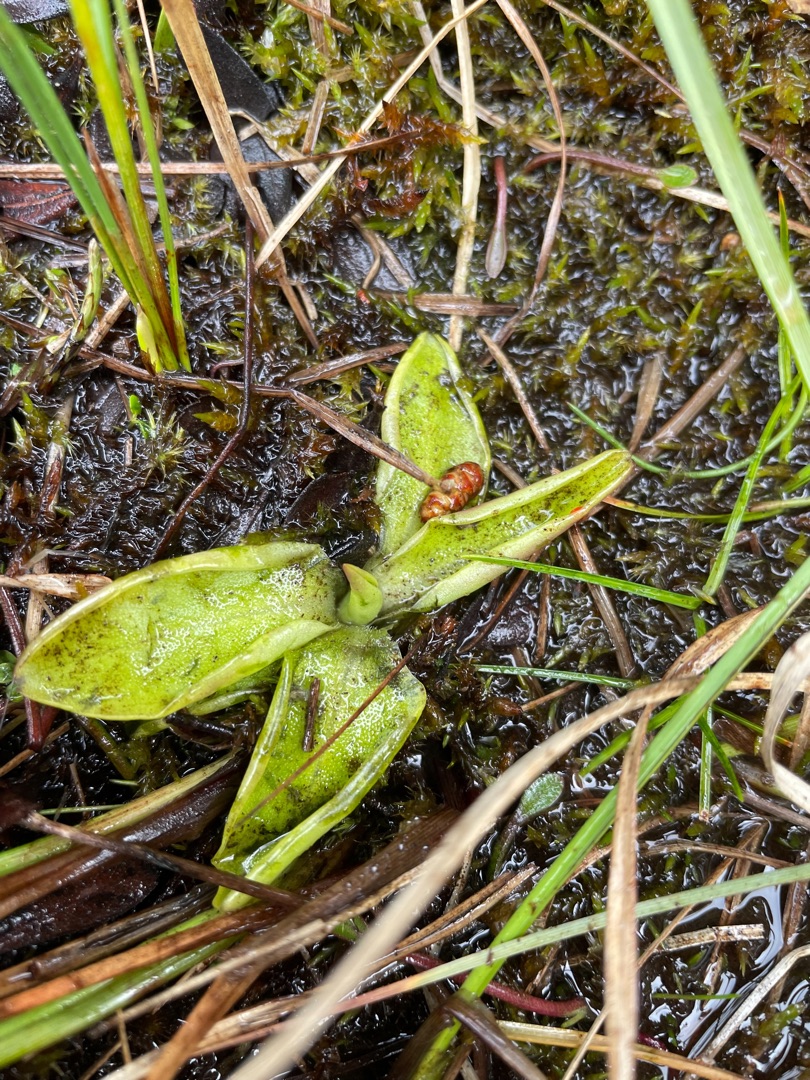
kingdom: Plantae
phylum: Tracheophyta
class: Magnoliopsida
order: Lamiales
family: Lentibulariaceae
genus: Pinguicula
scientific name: Pinguicula vulgaris
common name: Vibefedt
